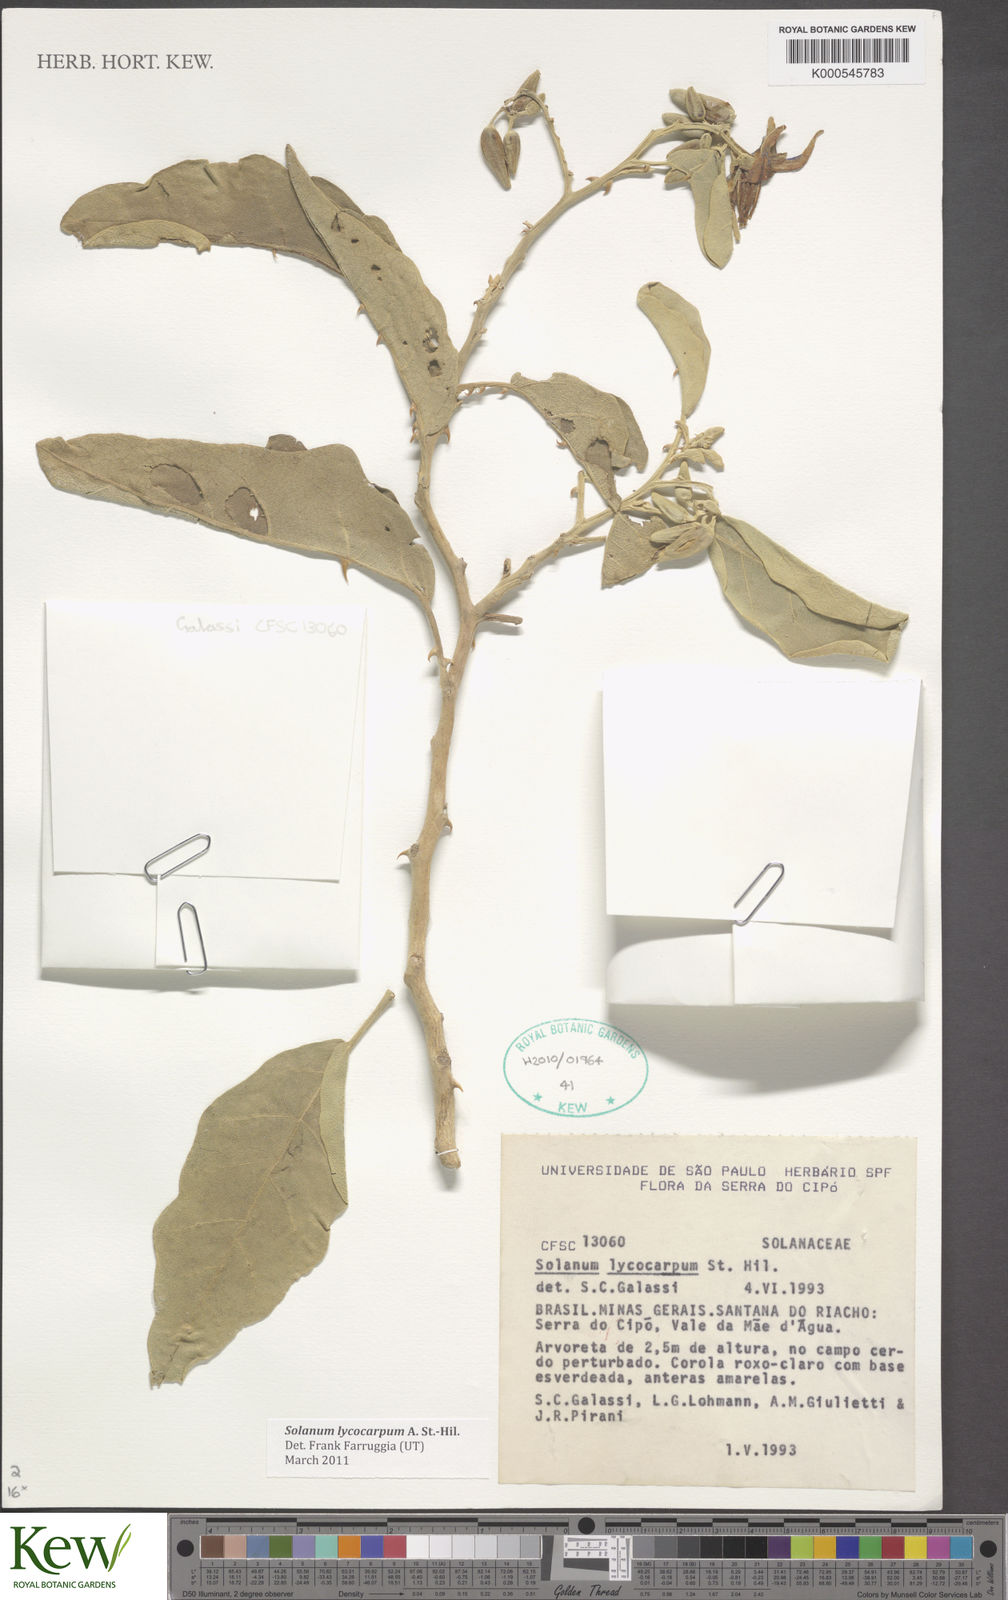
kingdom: Plantae
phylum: Tracheophyta
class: Magnoliopsida
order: Solanales
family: Solanaceae
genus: Solanum
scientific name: Solanum lycocarpum
